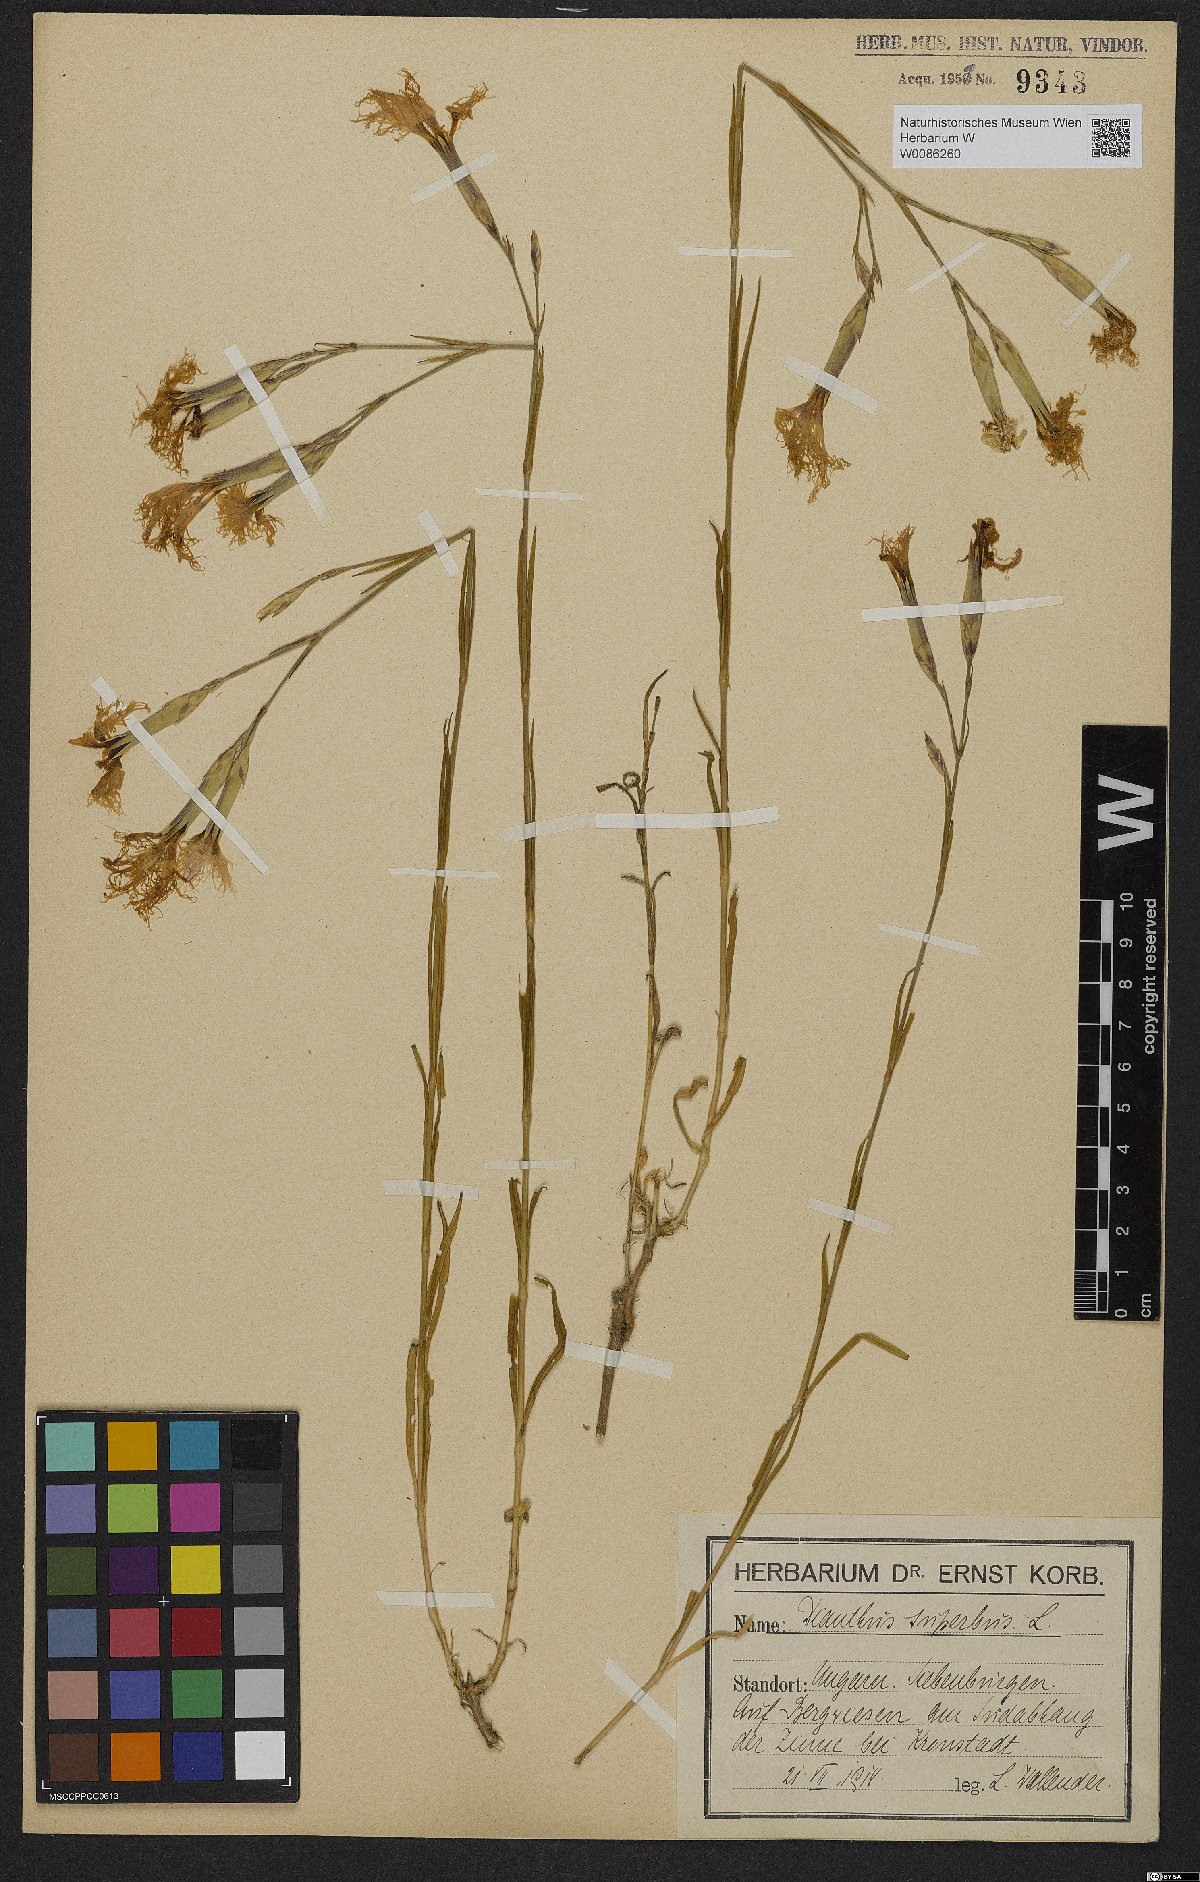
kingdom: Plantae
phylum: Tracheophyta
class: Magnoliopsida
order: Caryophyllales
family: Caryophyllaceae
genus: Dianthus
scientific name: Dianthus superbus
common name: Fringed pink
